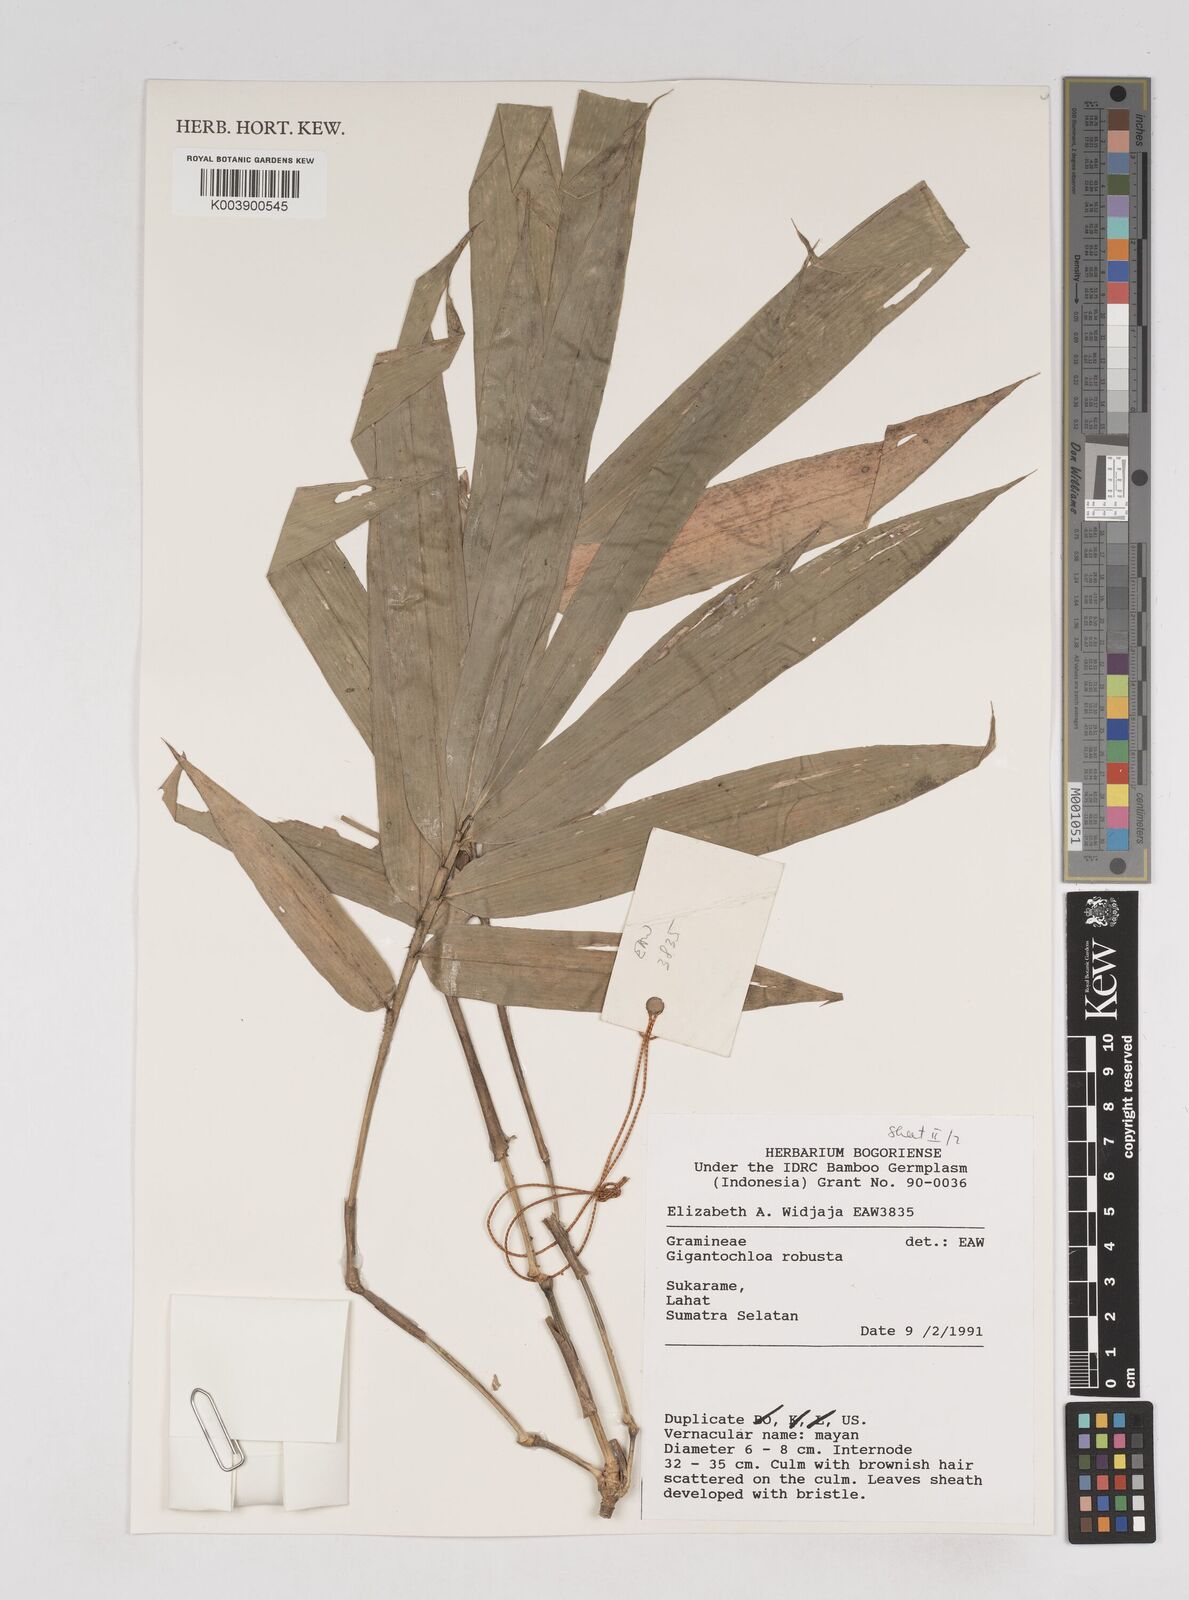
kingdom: Plantae
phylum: Tracheophyta
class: Liliopsida
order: Poales
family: Poaceae
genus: Gigantochloa
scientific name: Gigantochloa robusta
